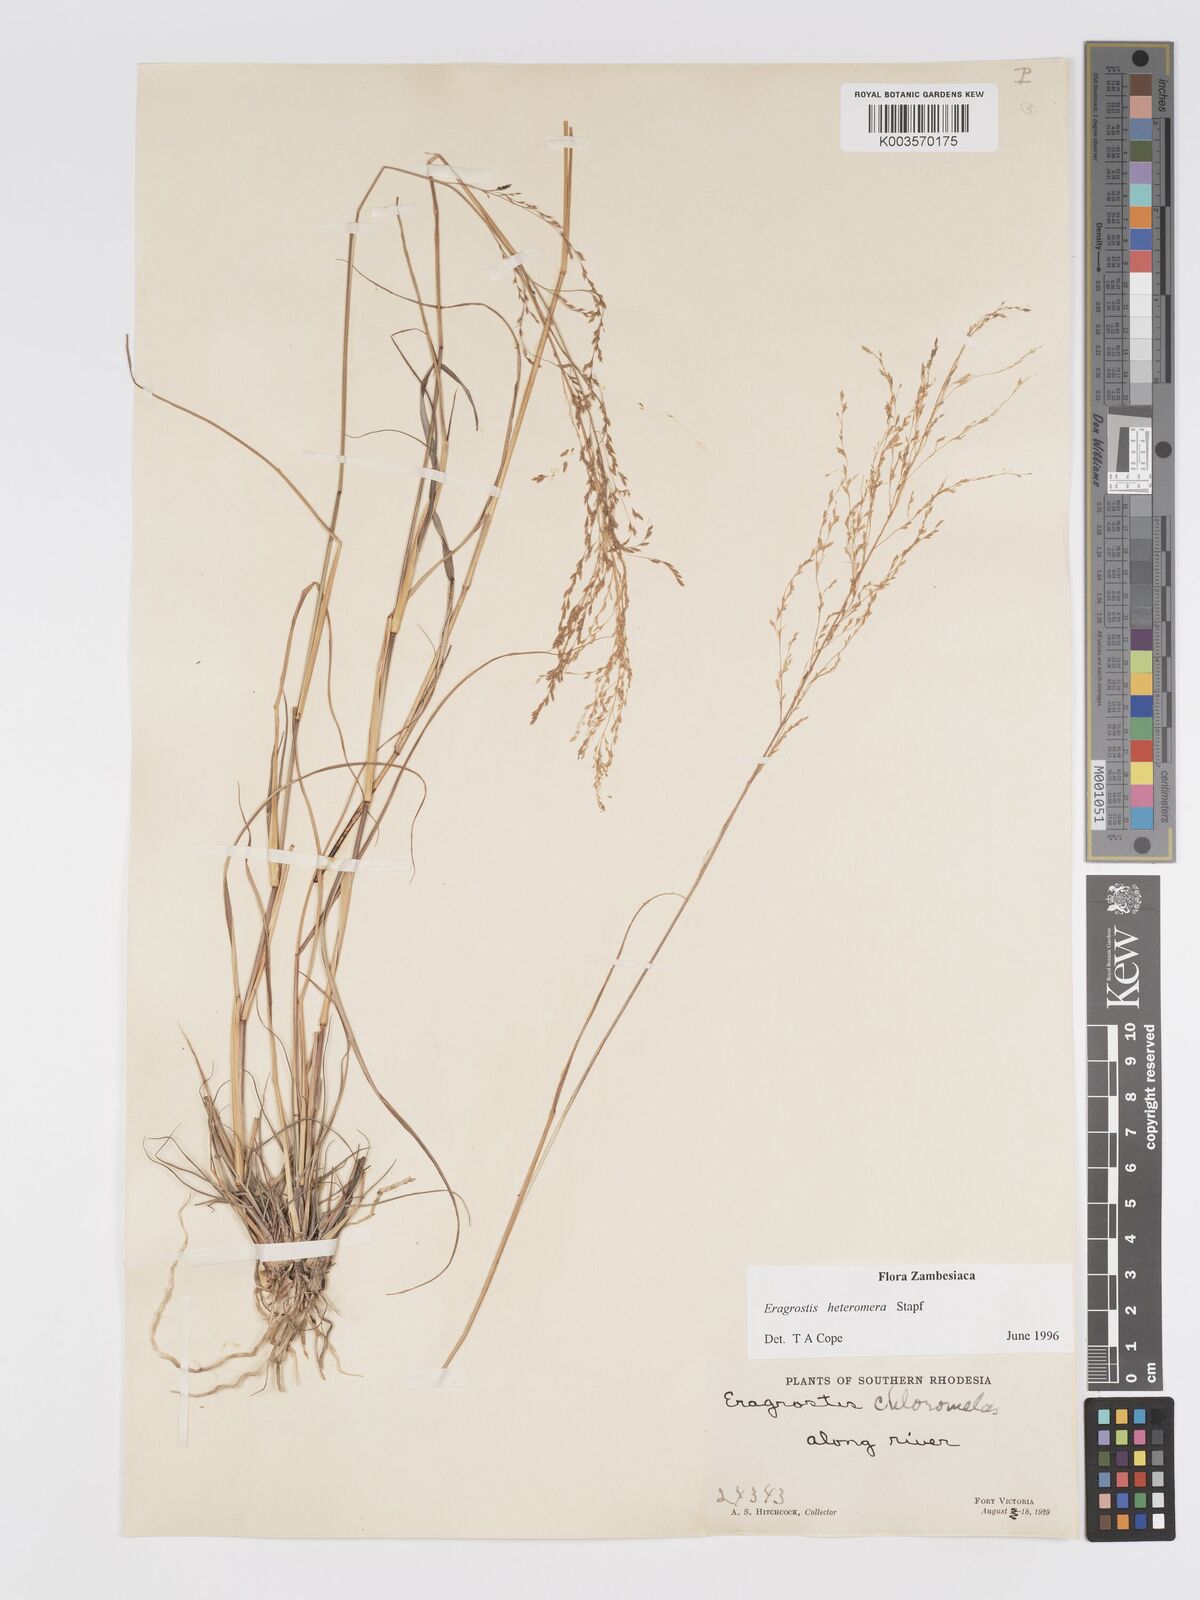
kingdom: Plantae
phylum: Tracheophyta
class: Liliopsida
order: Poales
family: Poaceae
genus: Eragrostis
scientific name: Eragrostis heteromera
